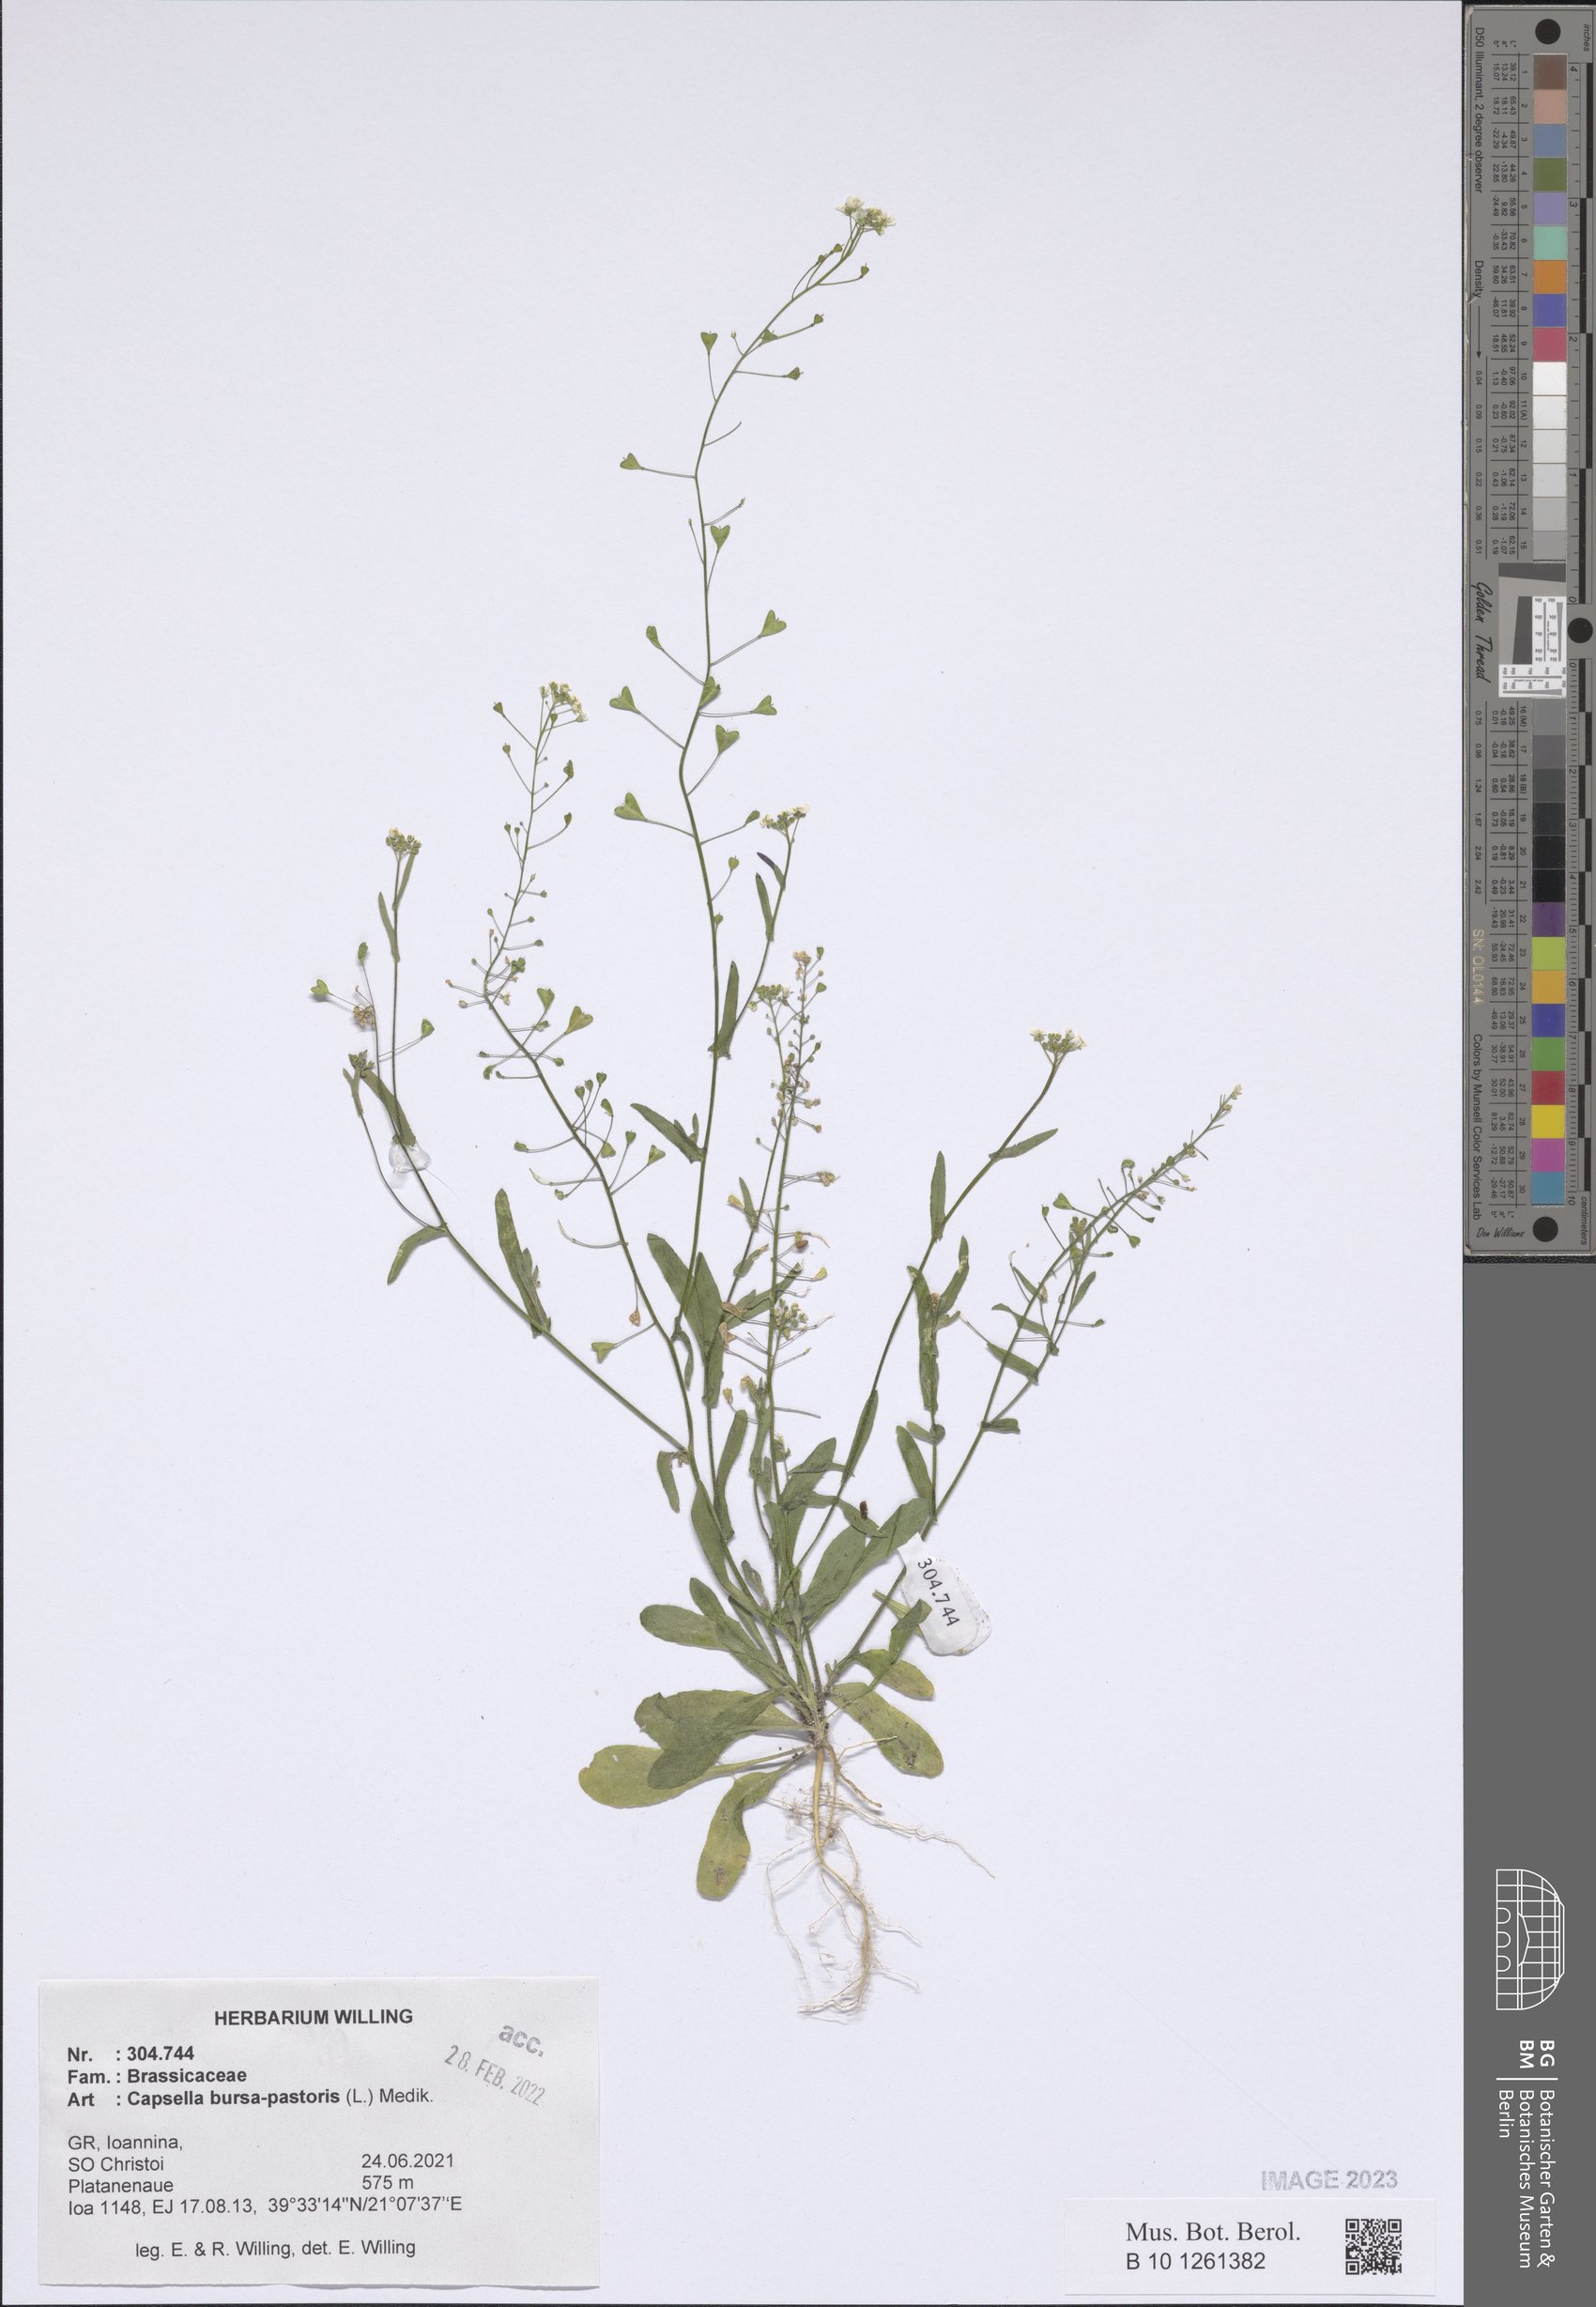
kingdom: Plantae
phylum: Tracheophyta
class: Magnoliopsida
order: Brassicales
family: Brassicaceae
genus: Capsella
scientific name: Capsella bursa-pastoris
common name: Shepherd's purse
